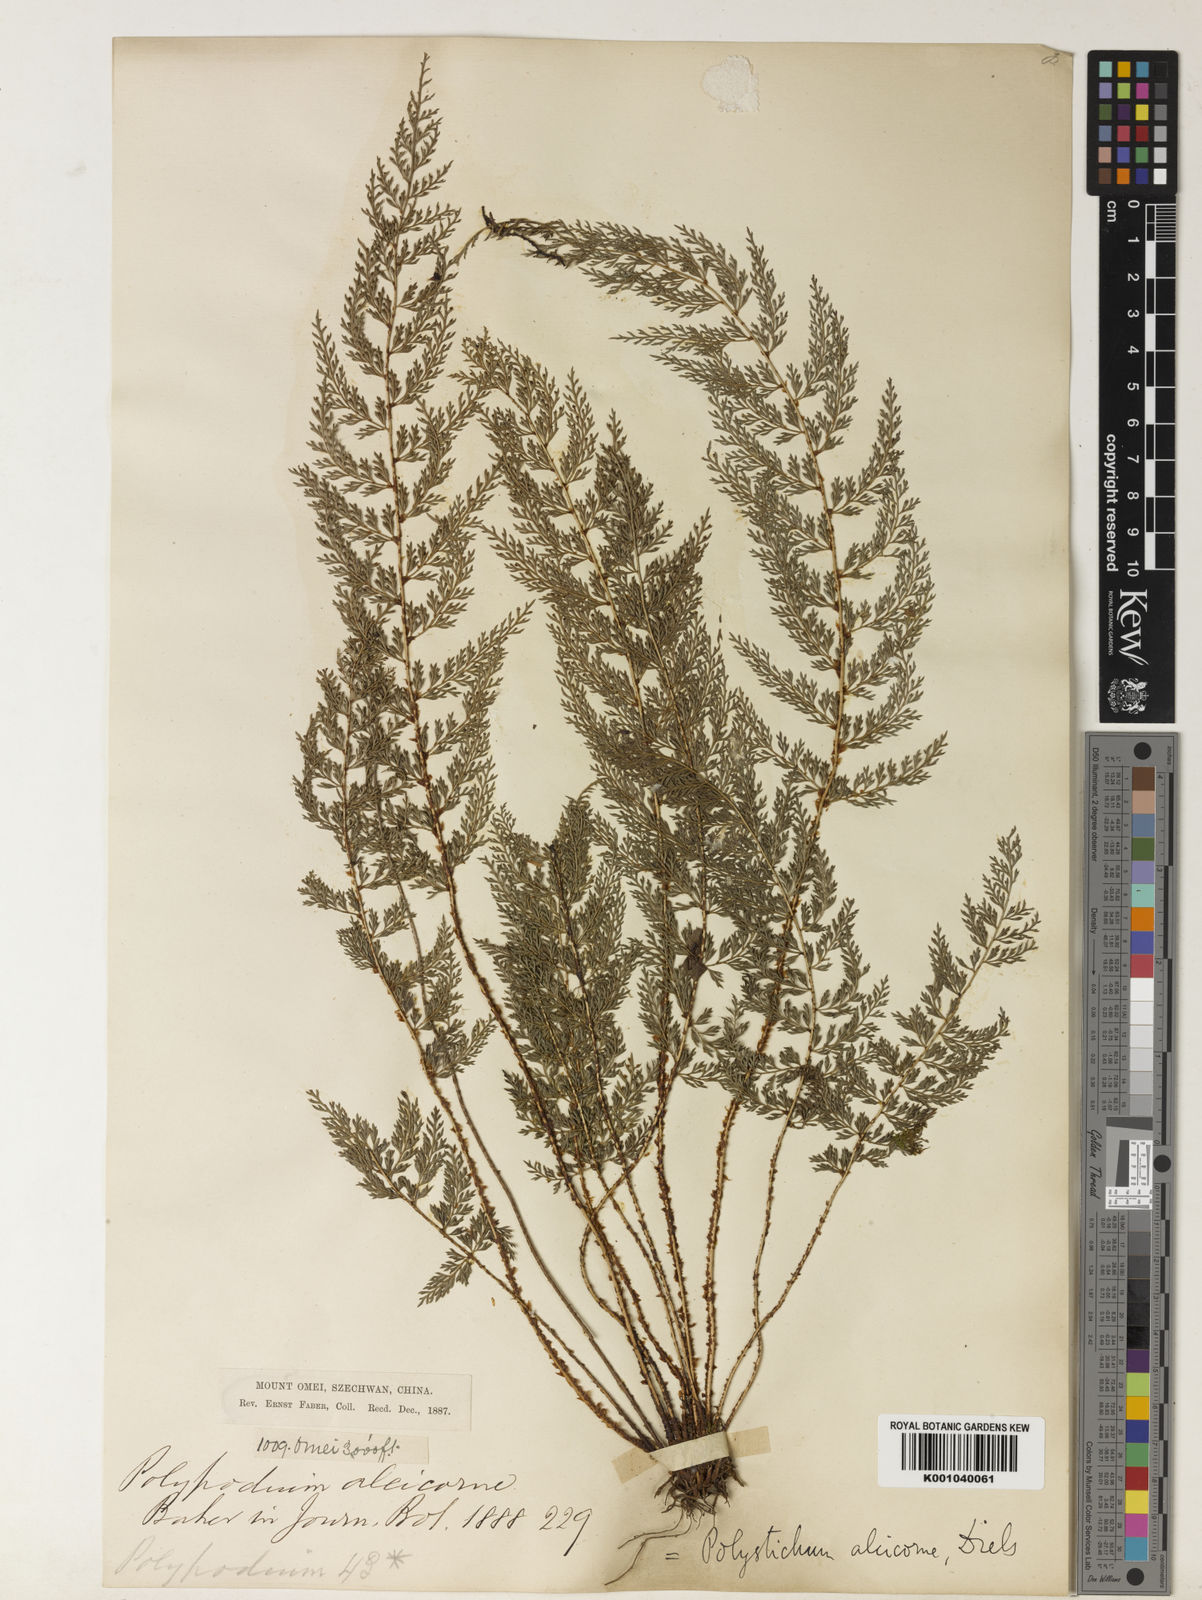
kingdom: Plantae
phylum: Tracheophyta
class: Polypodiopsida
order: Polypodiales
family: Dryopteridaceae
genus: Polystichum
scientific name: Polystichum alcicorne
